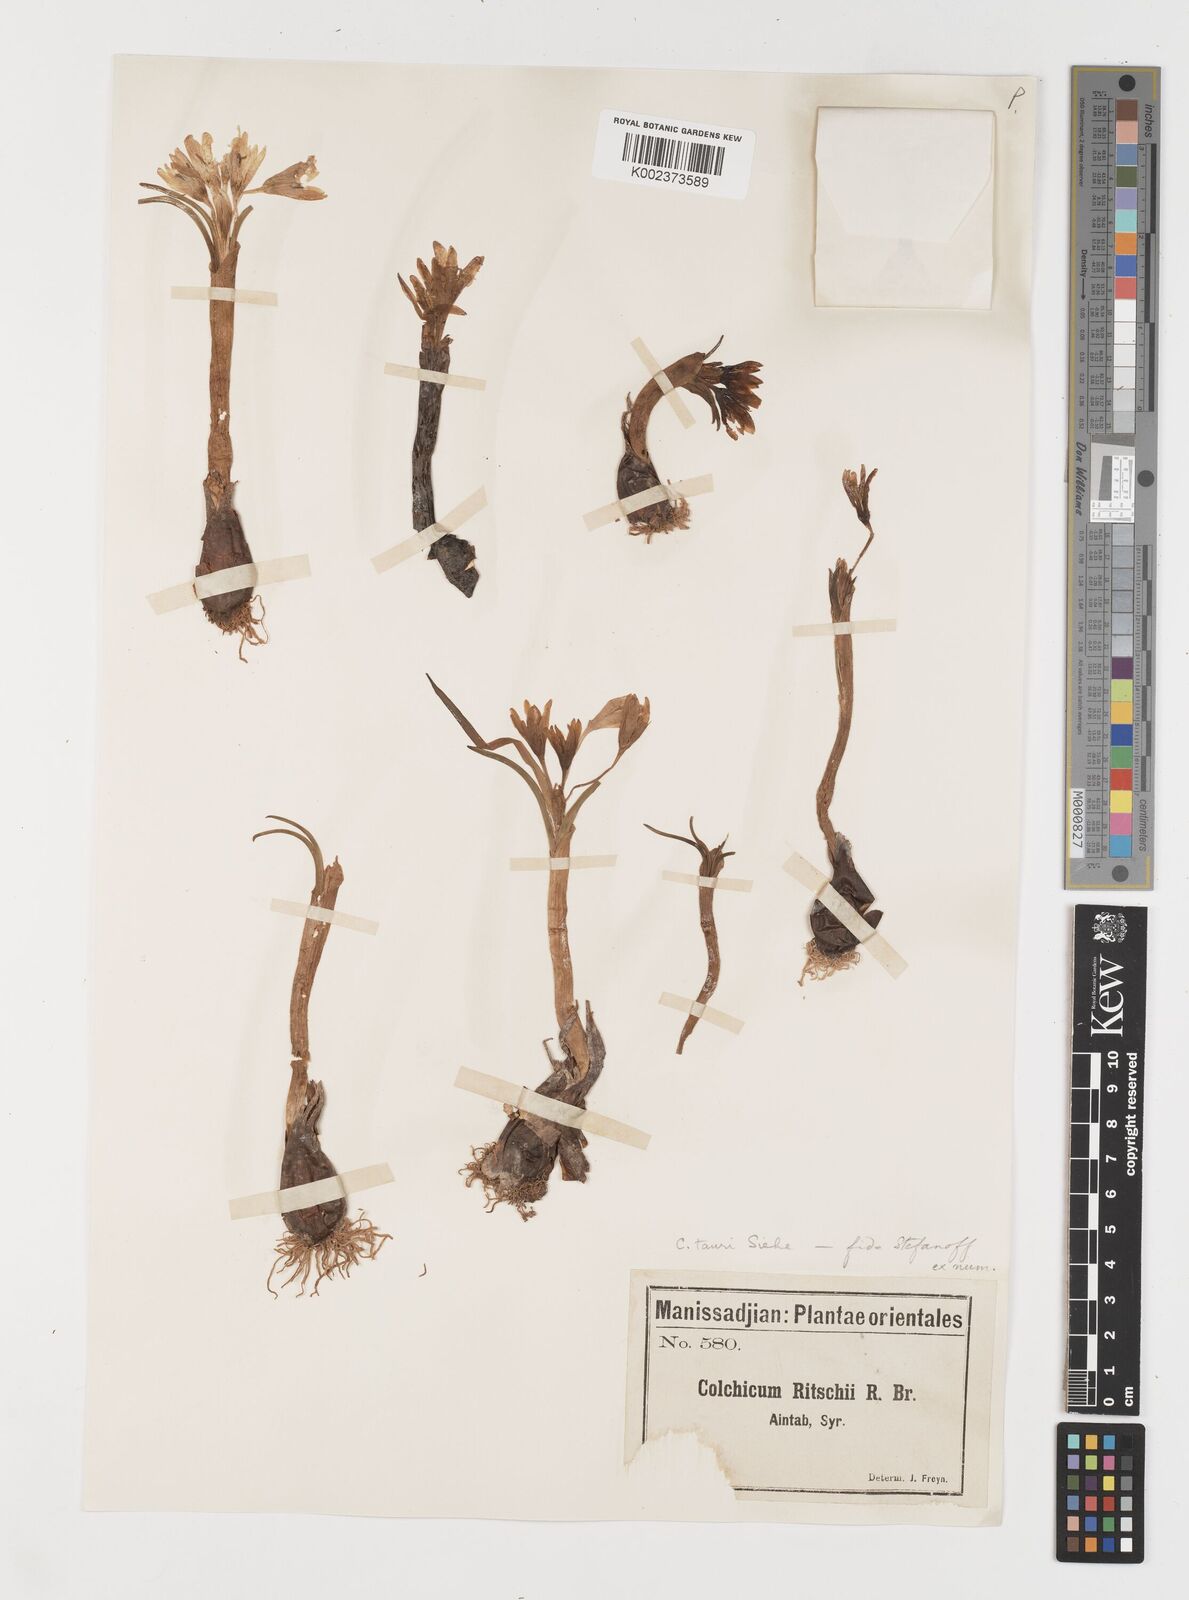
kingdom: Plantae
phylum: Tracheophyta
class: Liliopsida
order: Liliales
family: Colchicaceae
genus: Colchicum
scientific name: Colchicum serpentinum
